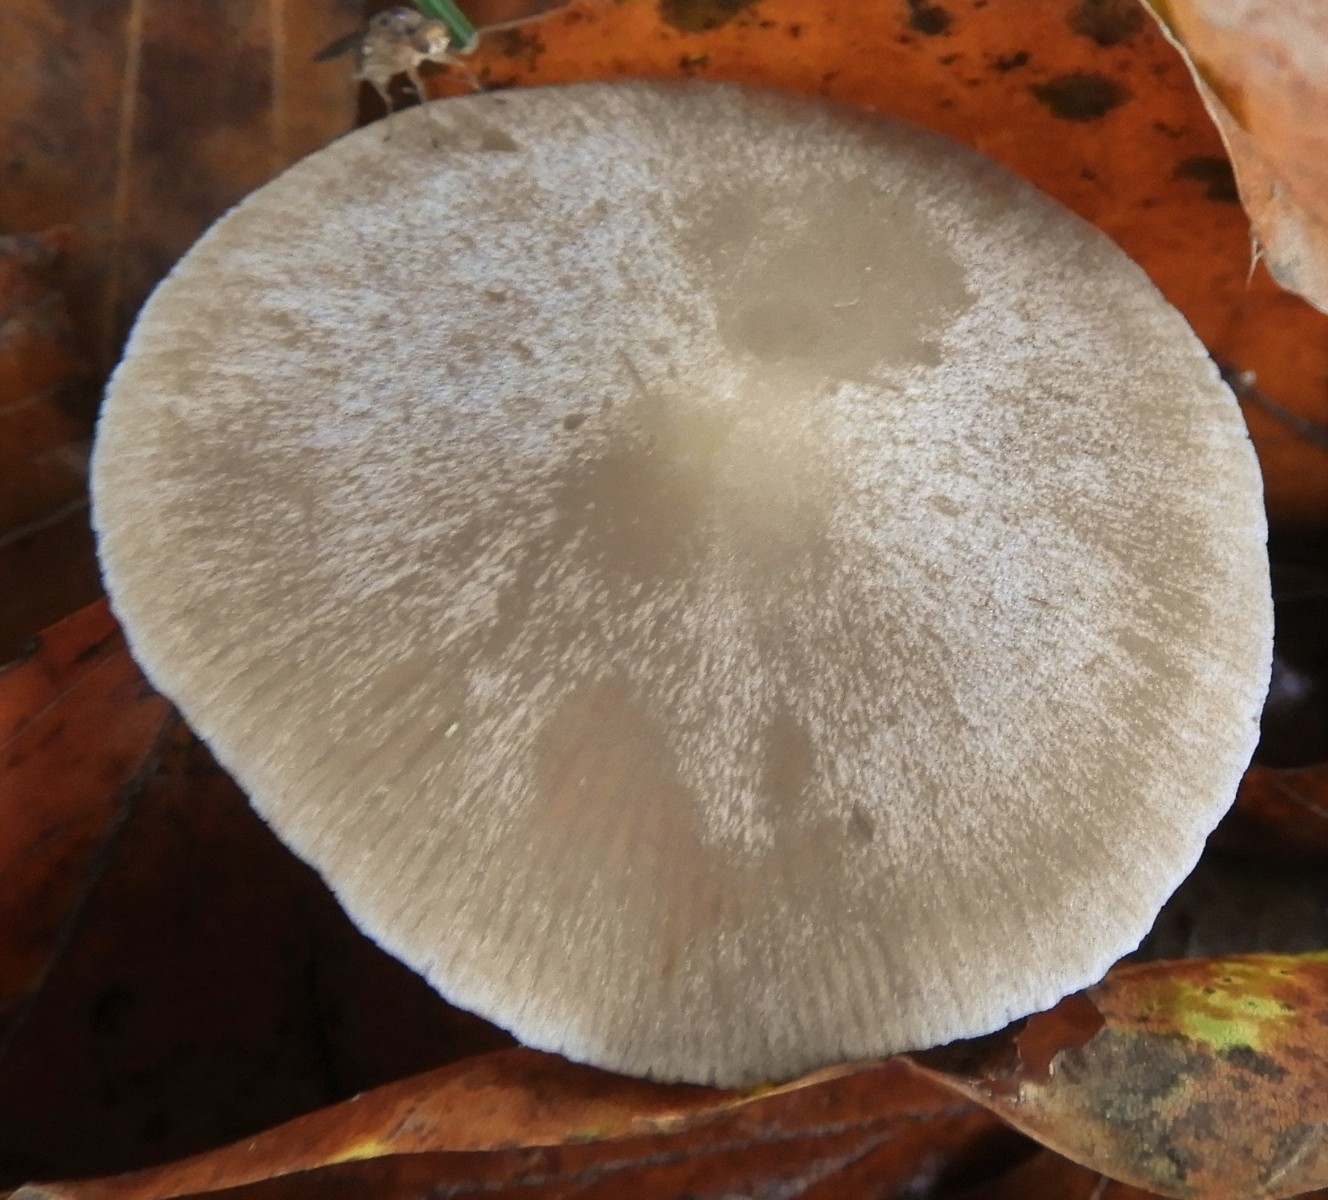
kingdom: Fungi
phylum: Basidiomycota
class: Agaricomycetes
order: Agaricales
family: Psathyrellaceae
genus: Psathyrella
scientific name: Psathyrella
